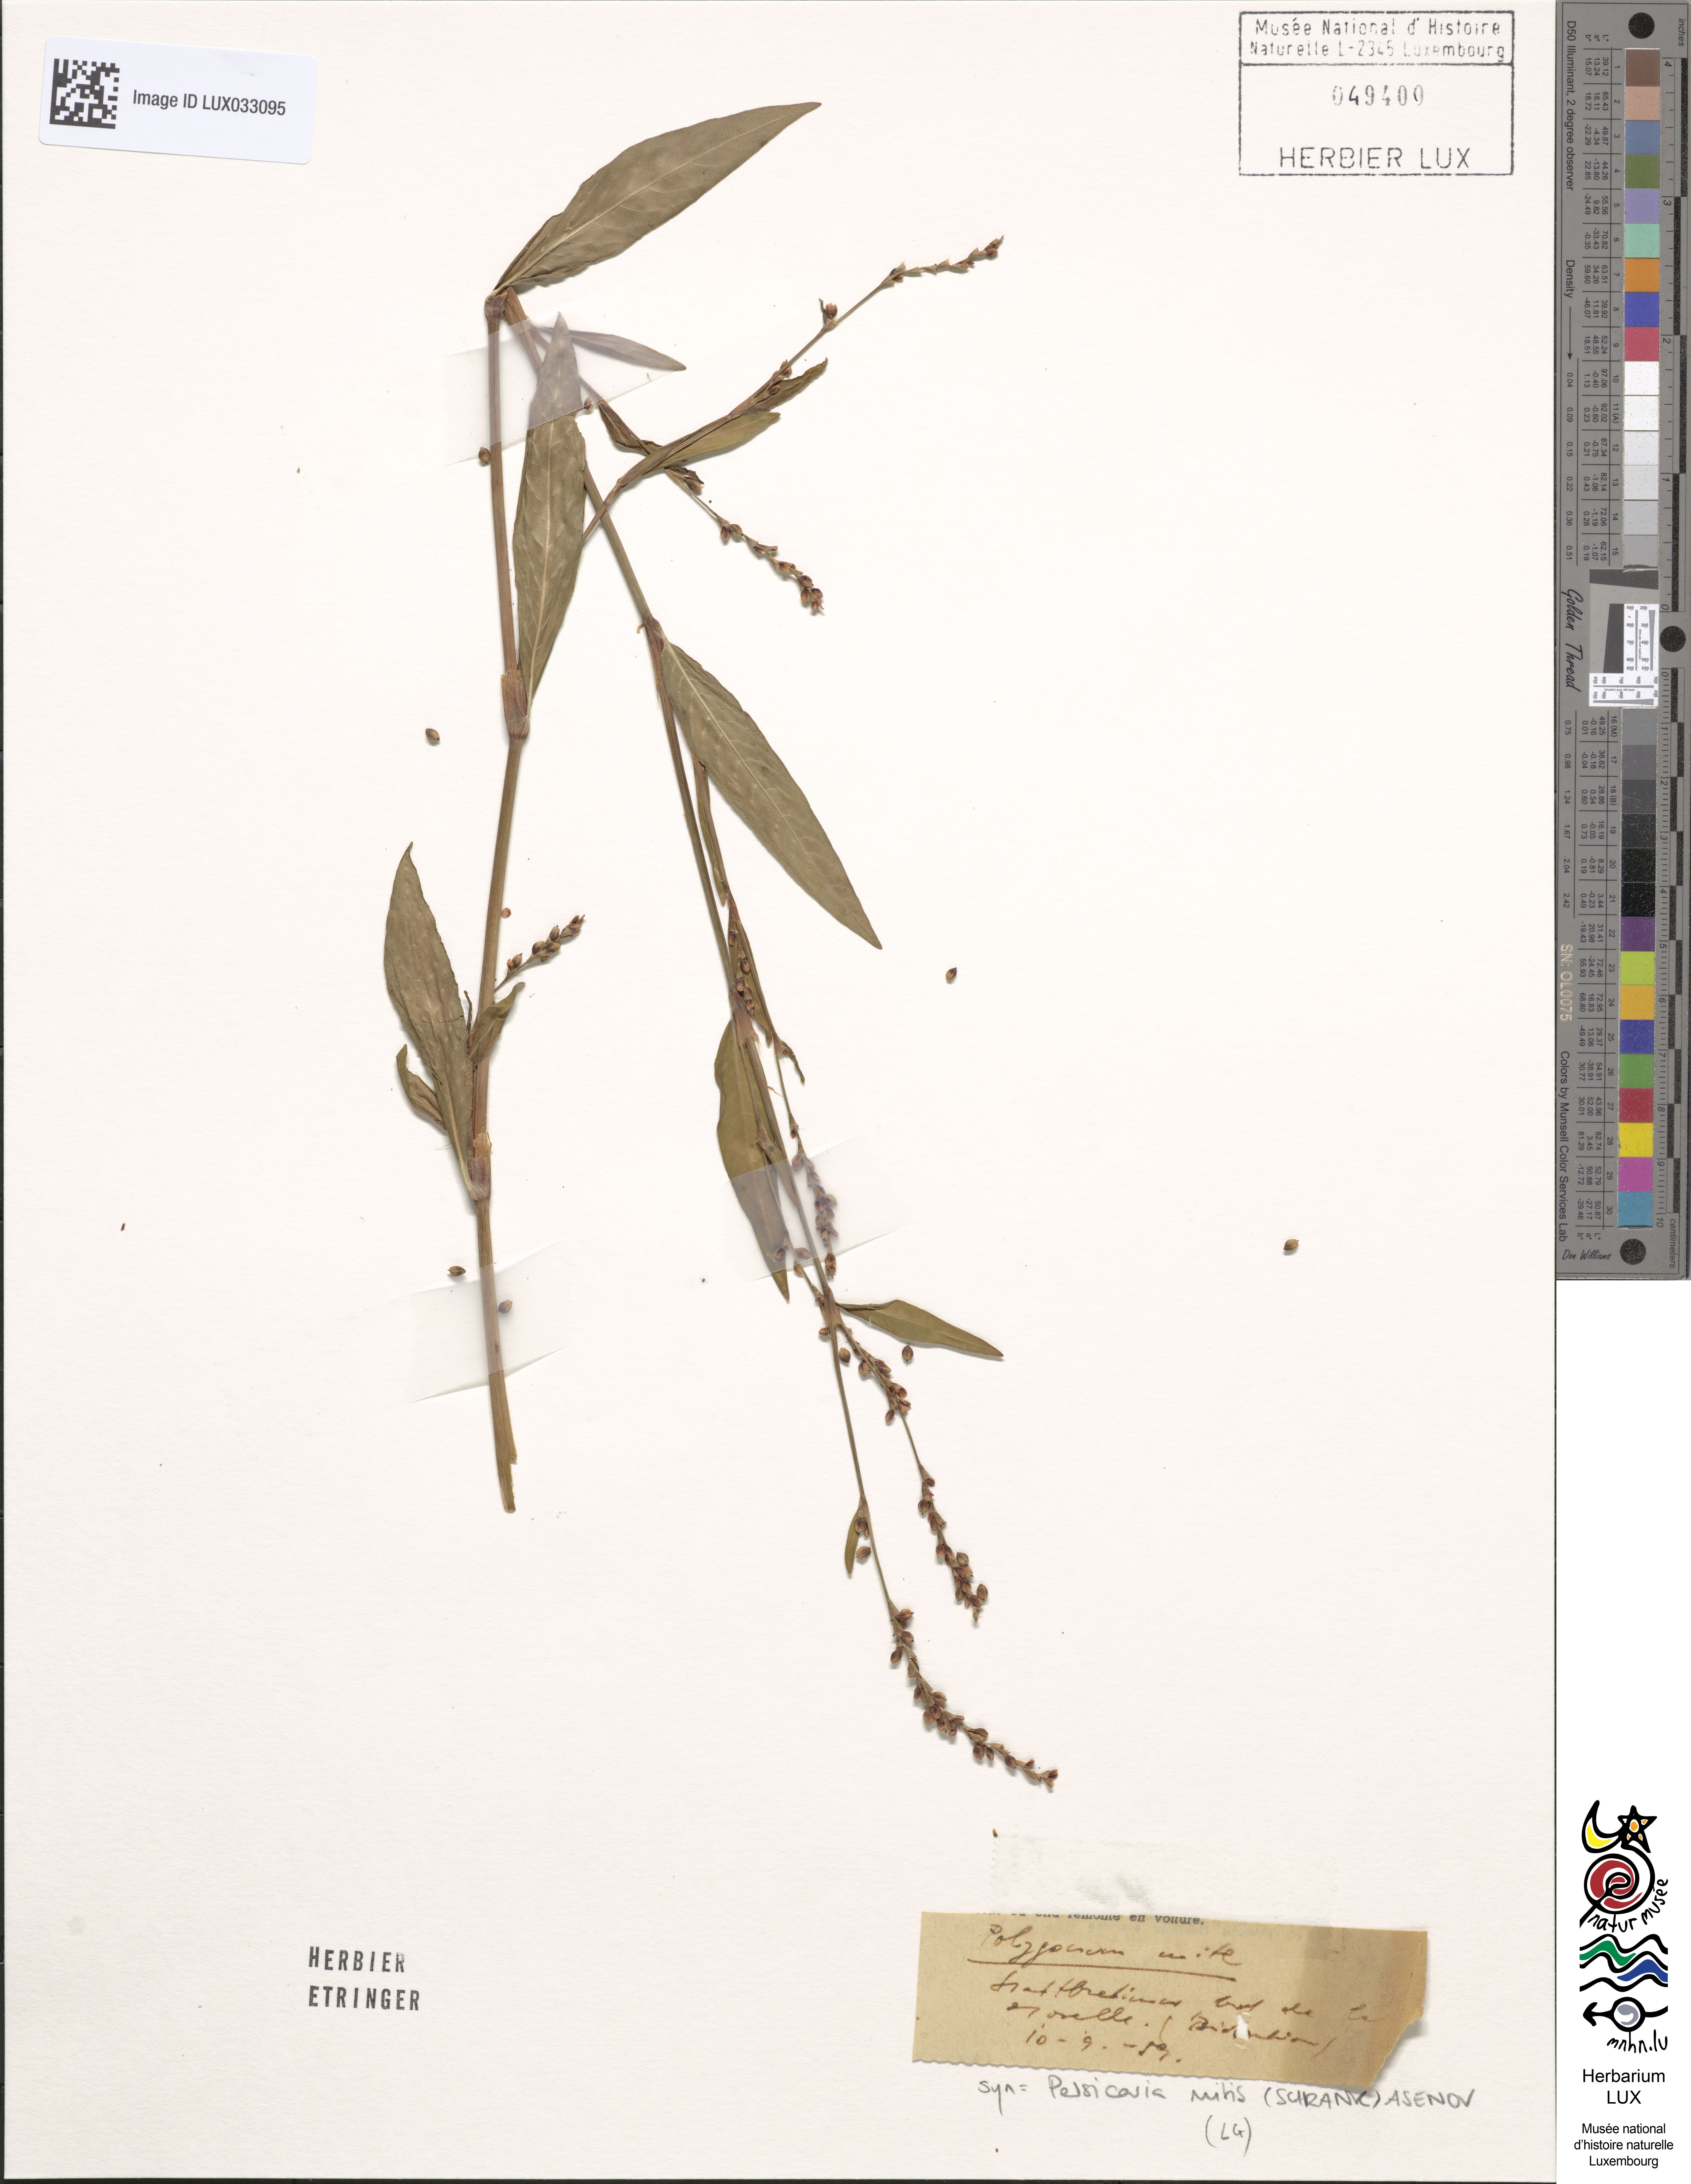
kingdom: Plantae
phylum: Tracheophyta
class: Magnoliopsida
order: Caryophyllales
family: Polygonaceae
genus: Persicaria
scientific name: Persicaria mitis
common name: Tasteless water-pepper
